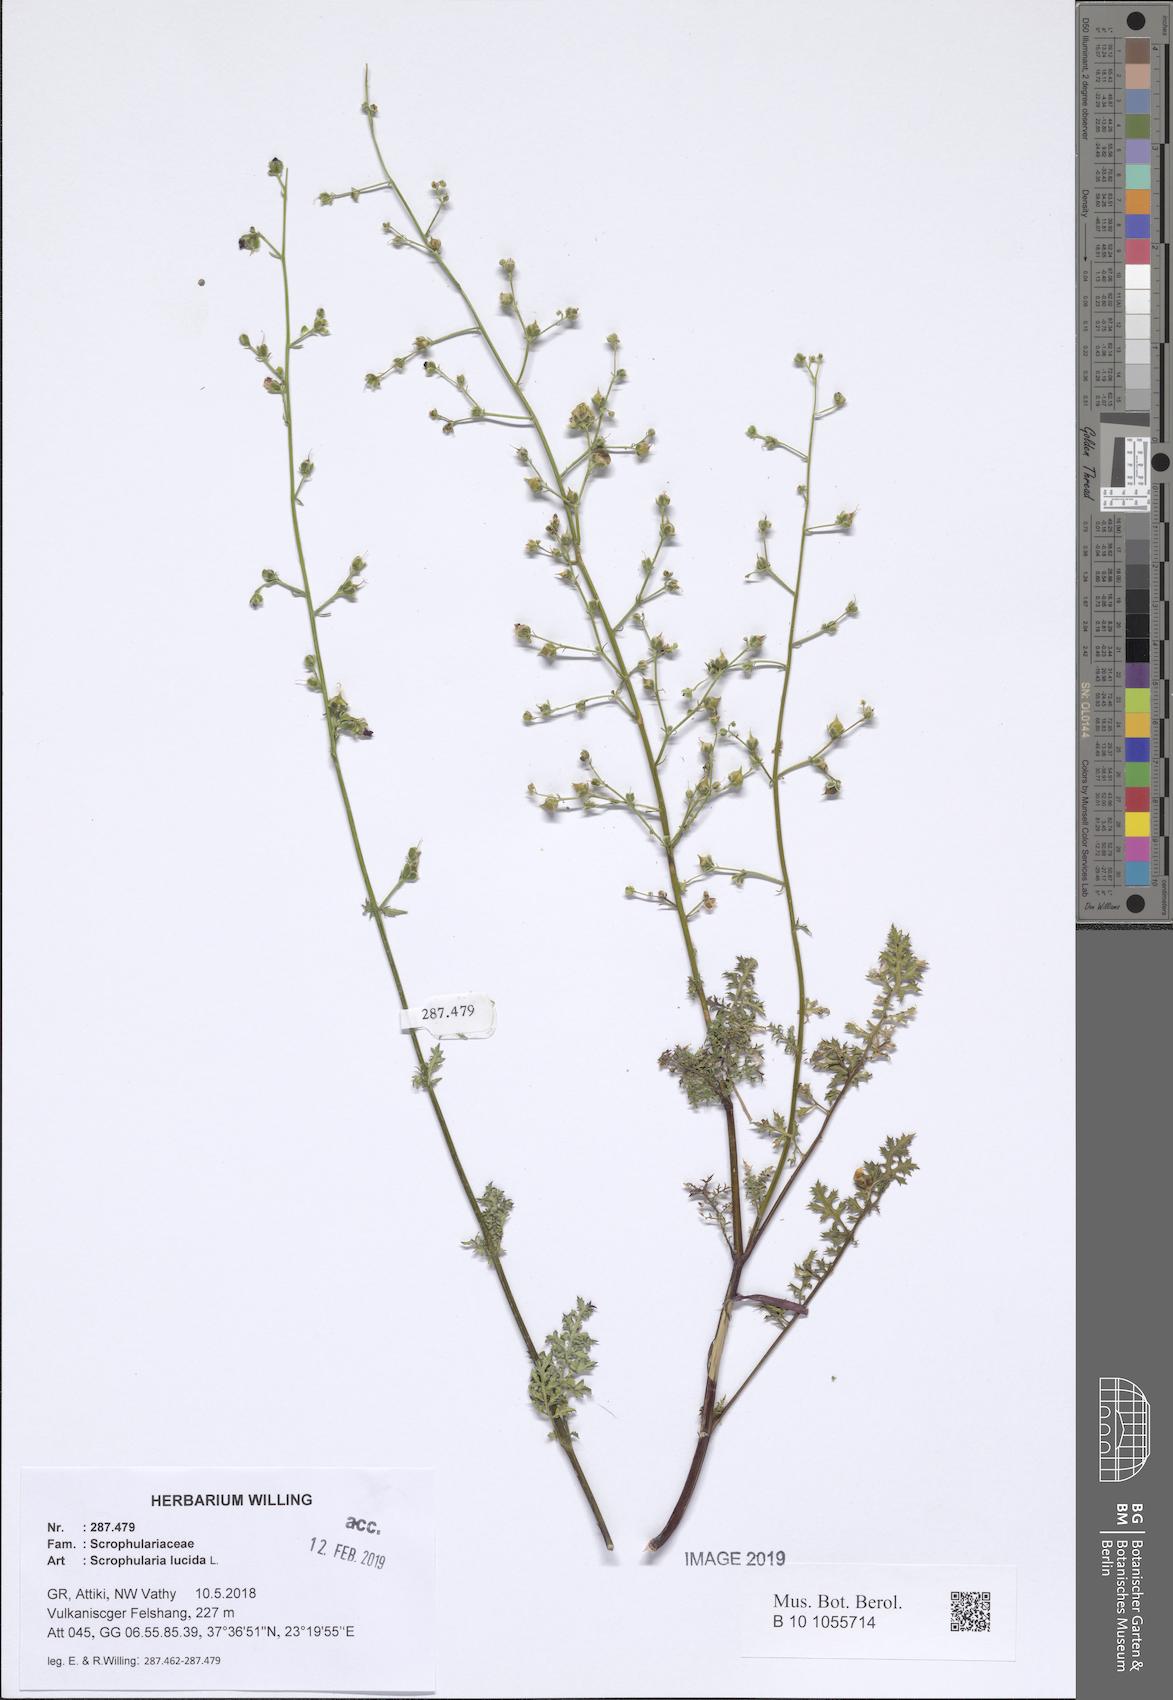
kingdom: Plantae
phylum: Tracheophyta
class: Magnoliopsida
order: Lamiales
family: Scrophulariaceae
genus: Scrophularia
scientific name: Scrophularia lucida
